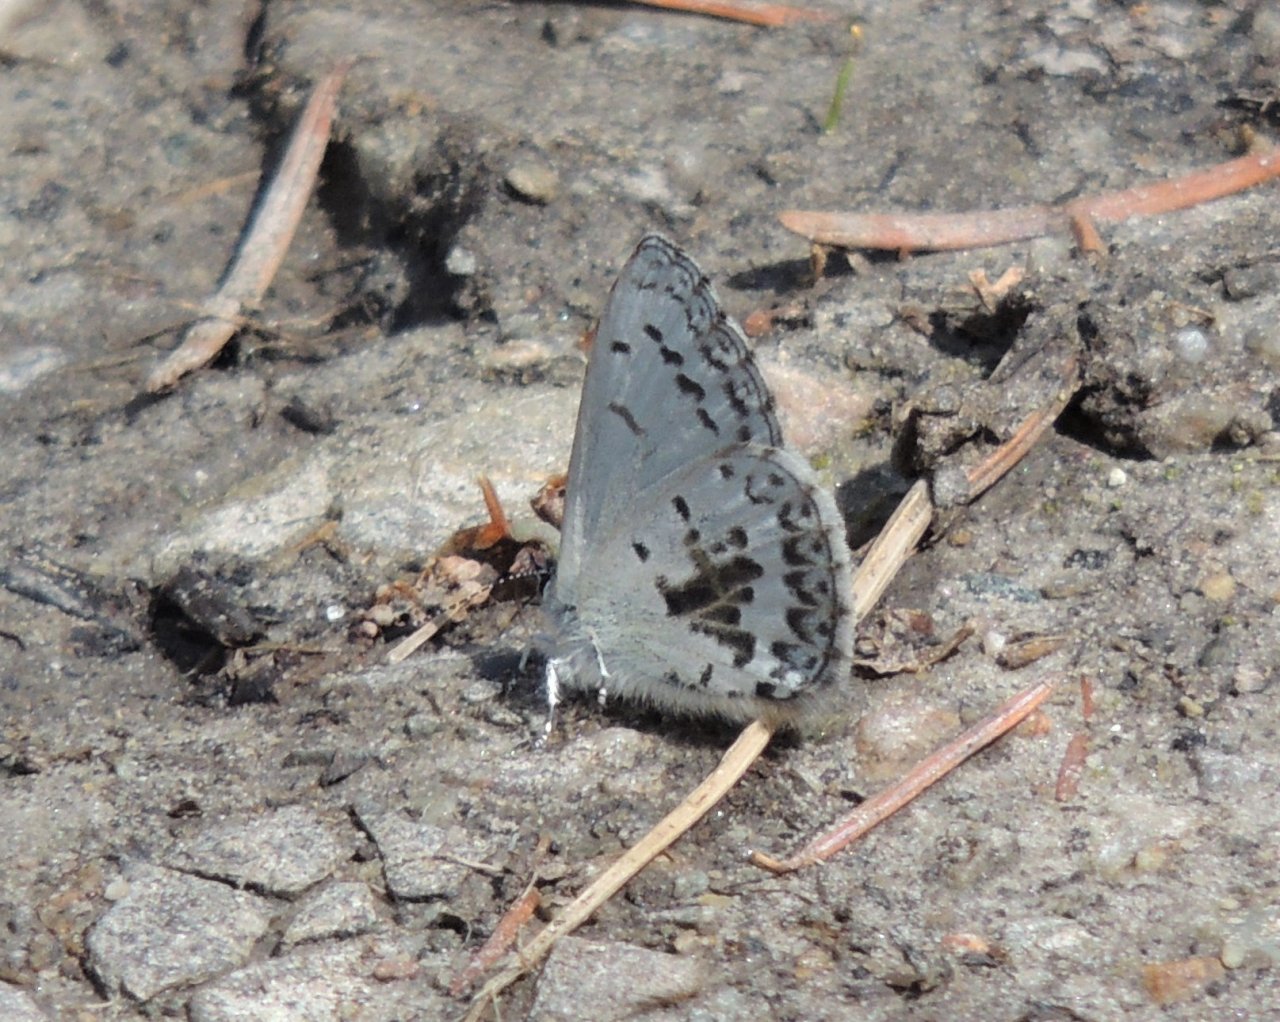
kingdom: Animalia
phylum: Arthropoda
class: Insecta
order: Lepidoptera
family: Lycaenidae
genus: Celastrina
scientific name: Celastrina ladon
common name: Echo Azure
